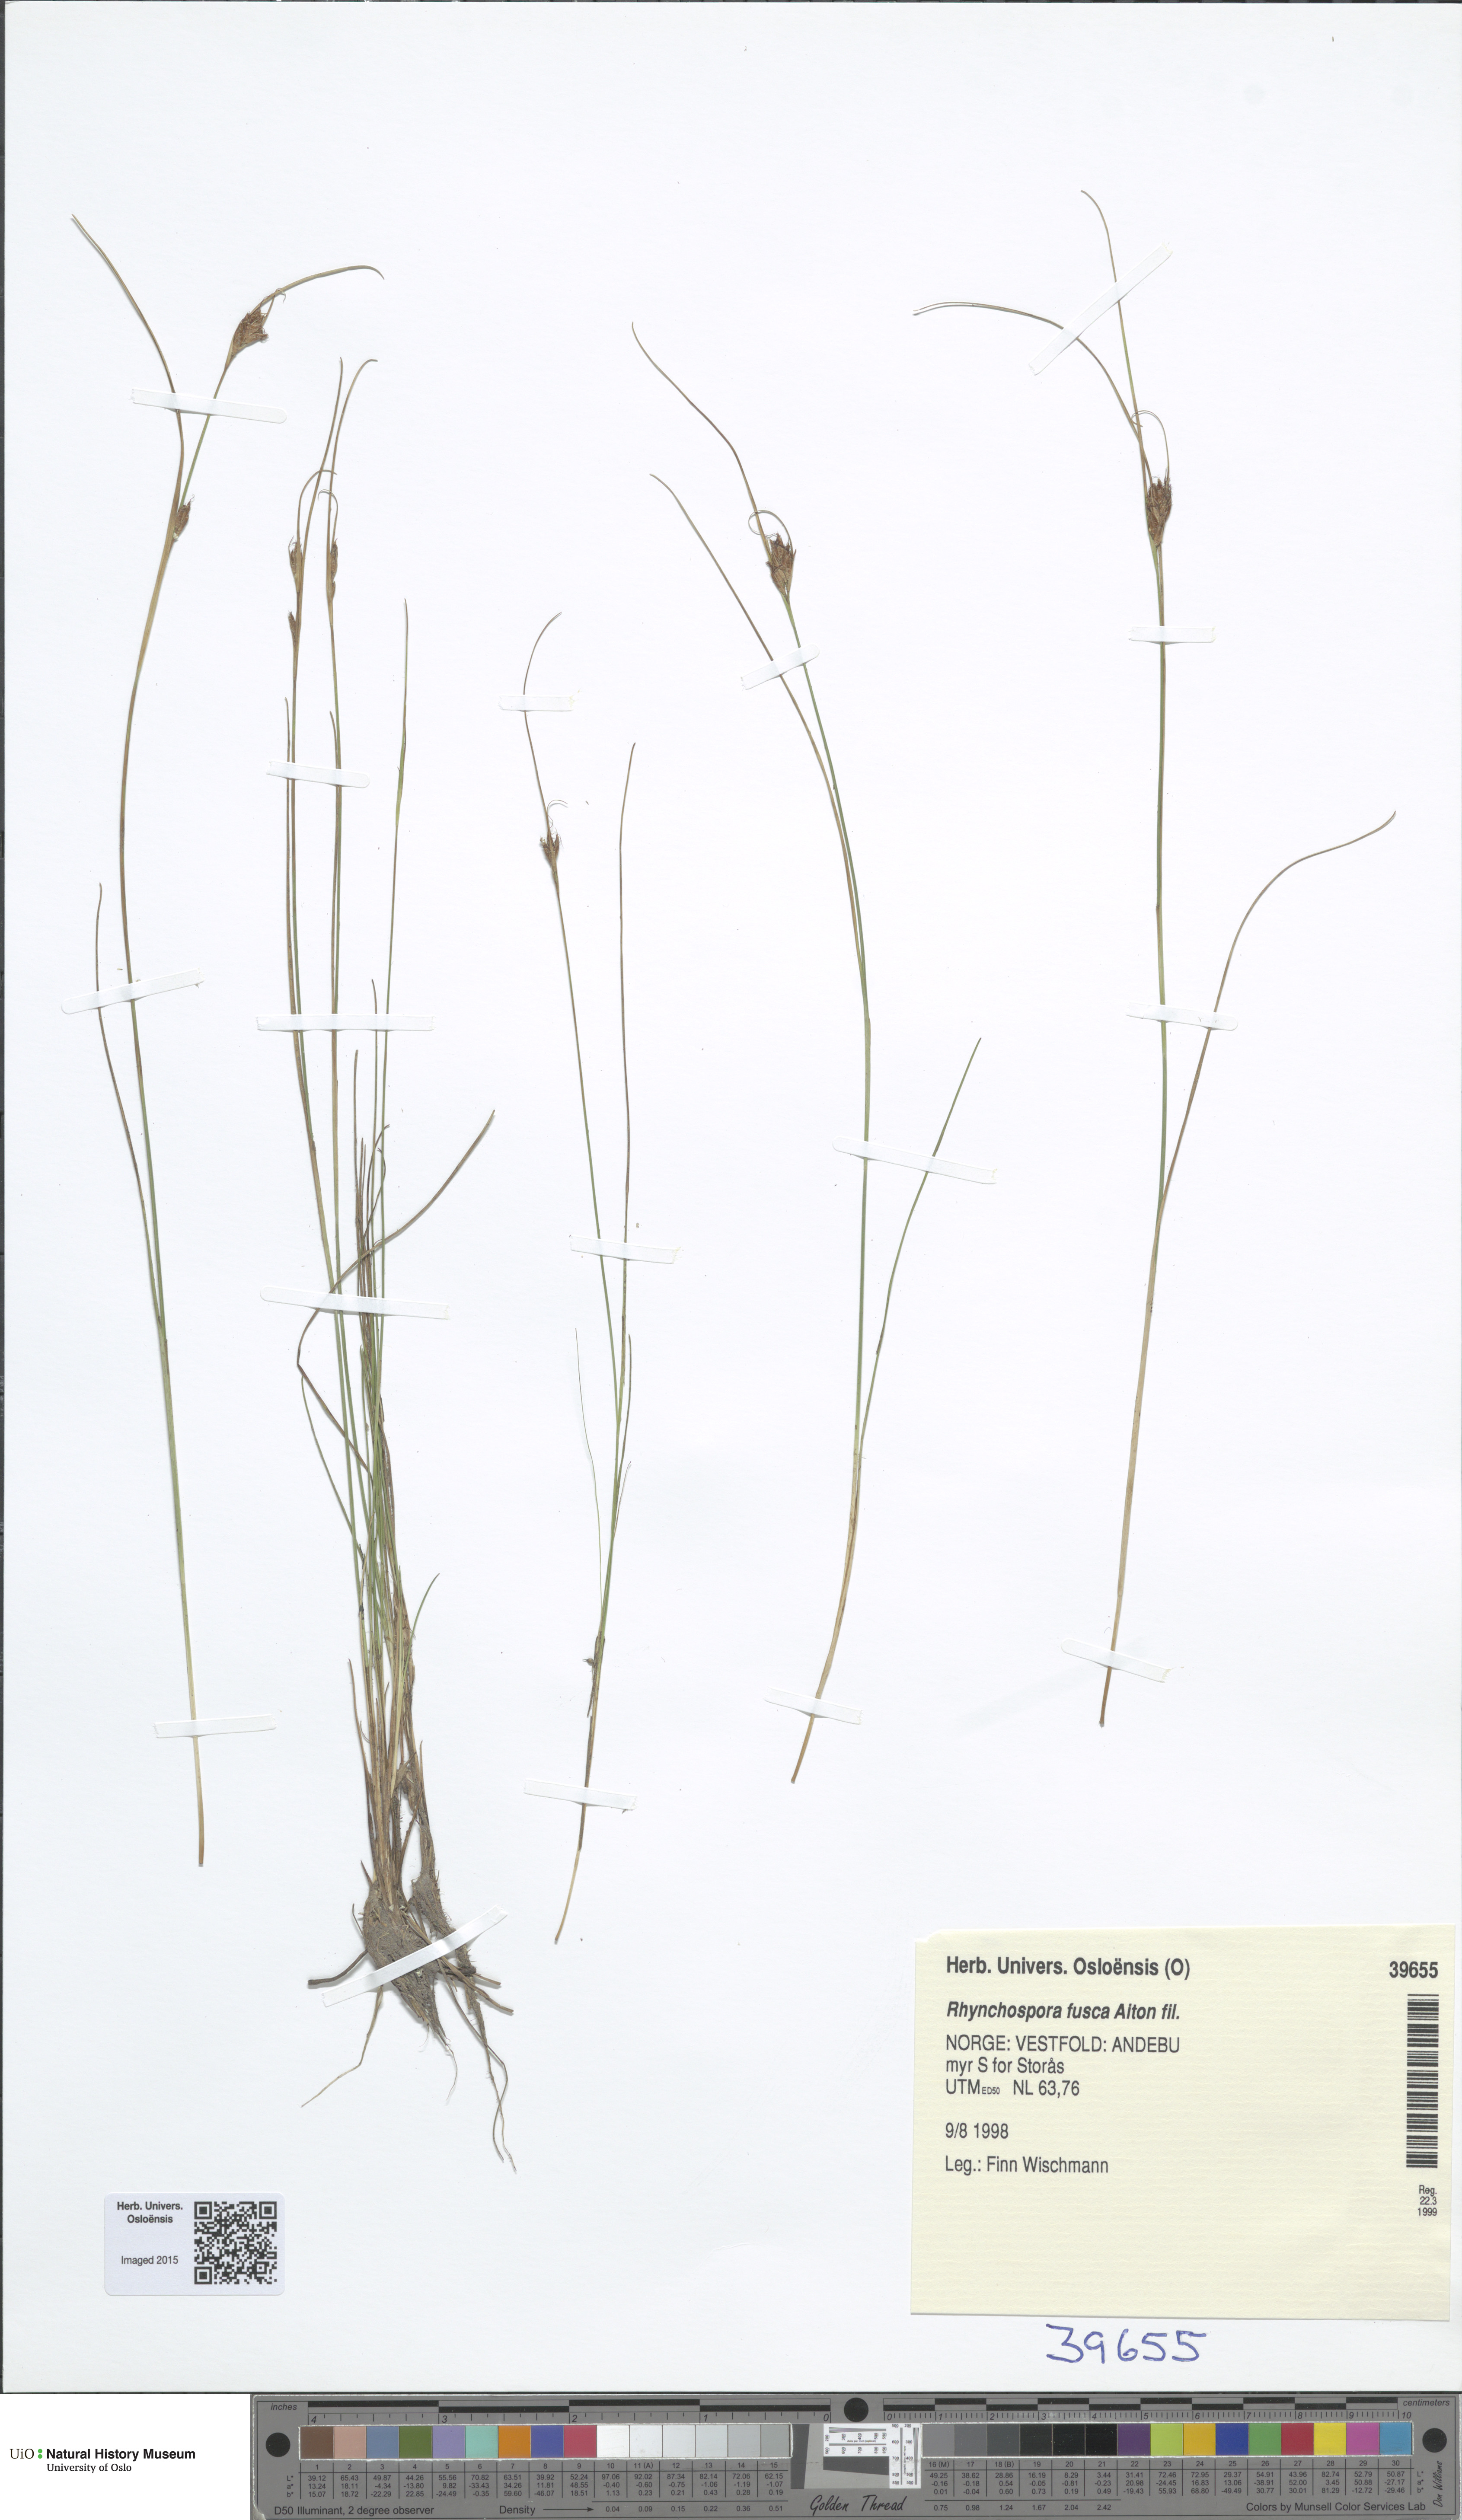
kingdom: Plantae
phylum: Tracheophyta
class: Liliopsida
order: Poales
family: Cyperaceae
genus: Rhynchospora
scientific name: Rhynchospora fusca
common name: Brown beak-sedge
